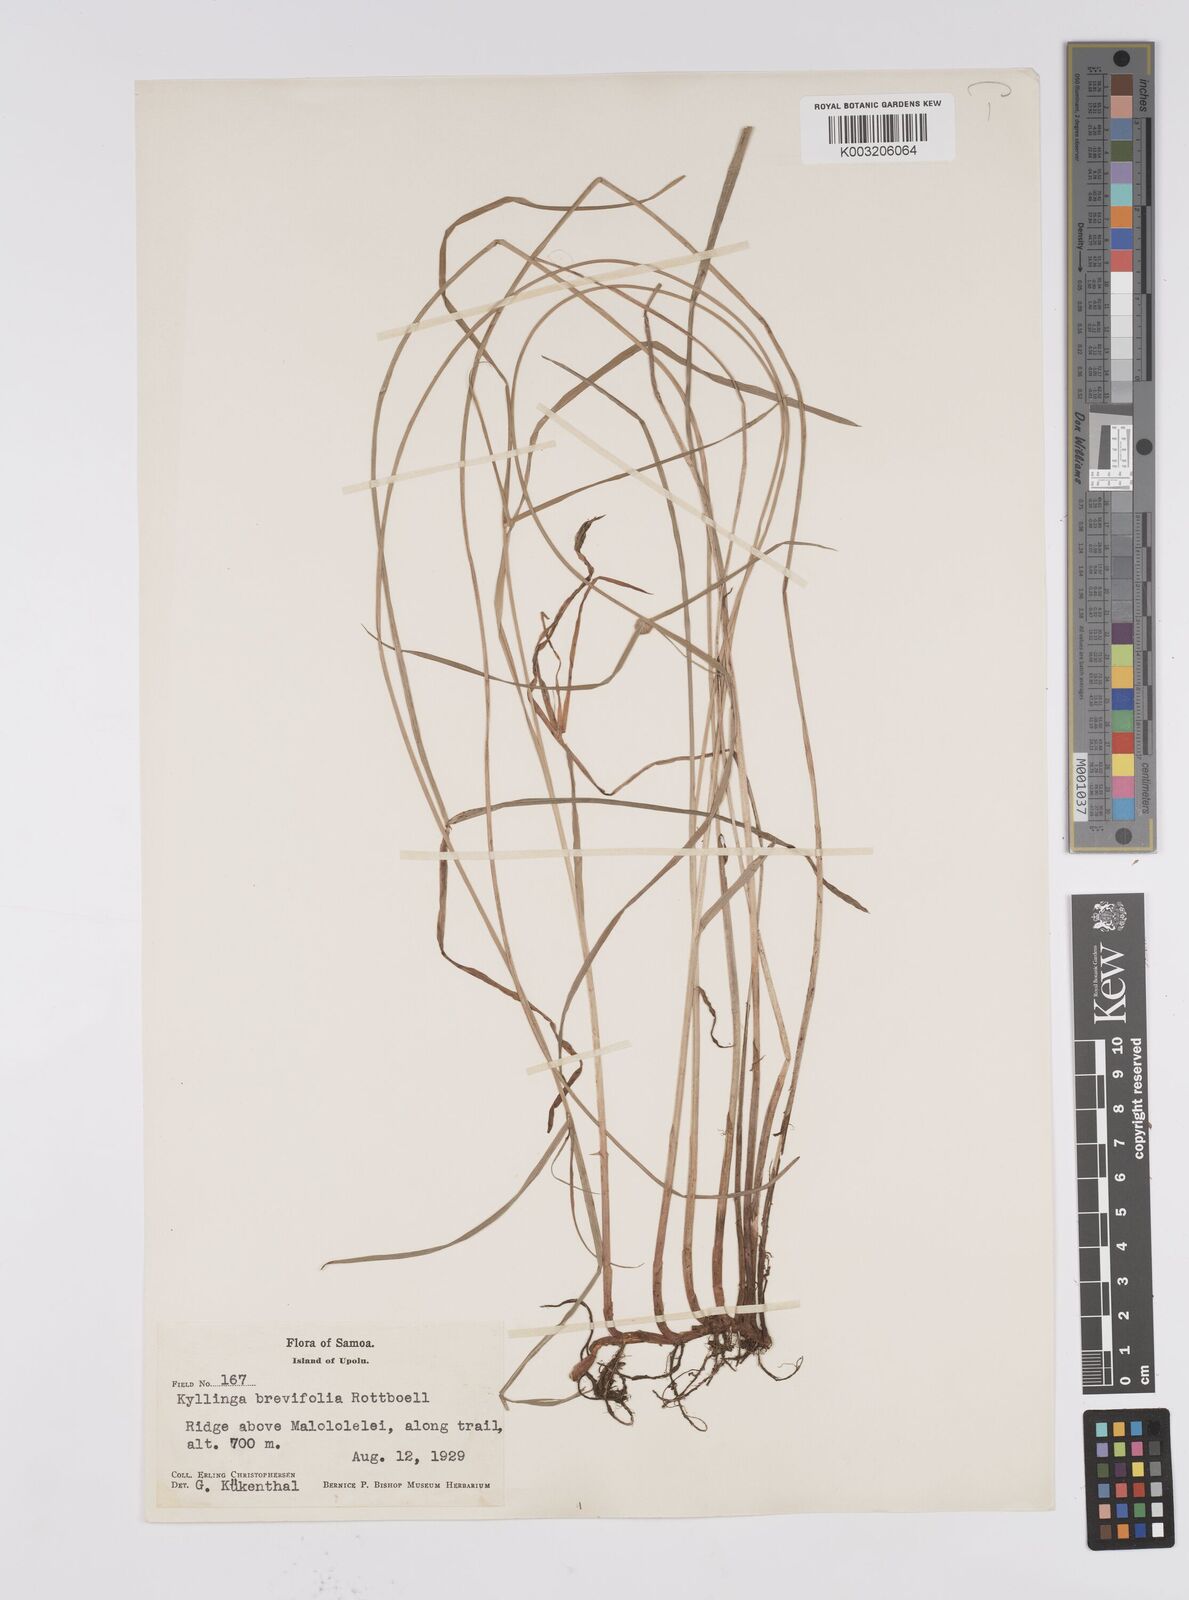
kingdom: Plantae
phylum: Tracheophyta
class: Liliopsida
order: Poales
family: Cyperaceae
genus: Cyperus
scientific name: Cyperus brevifolius
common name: Globe kyllinga
